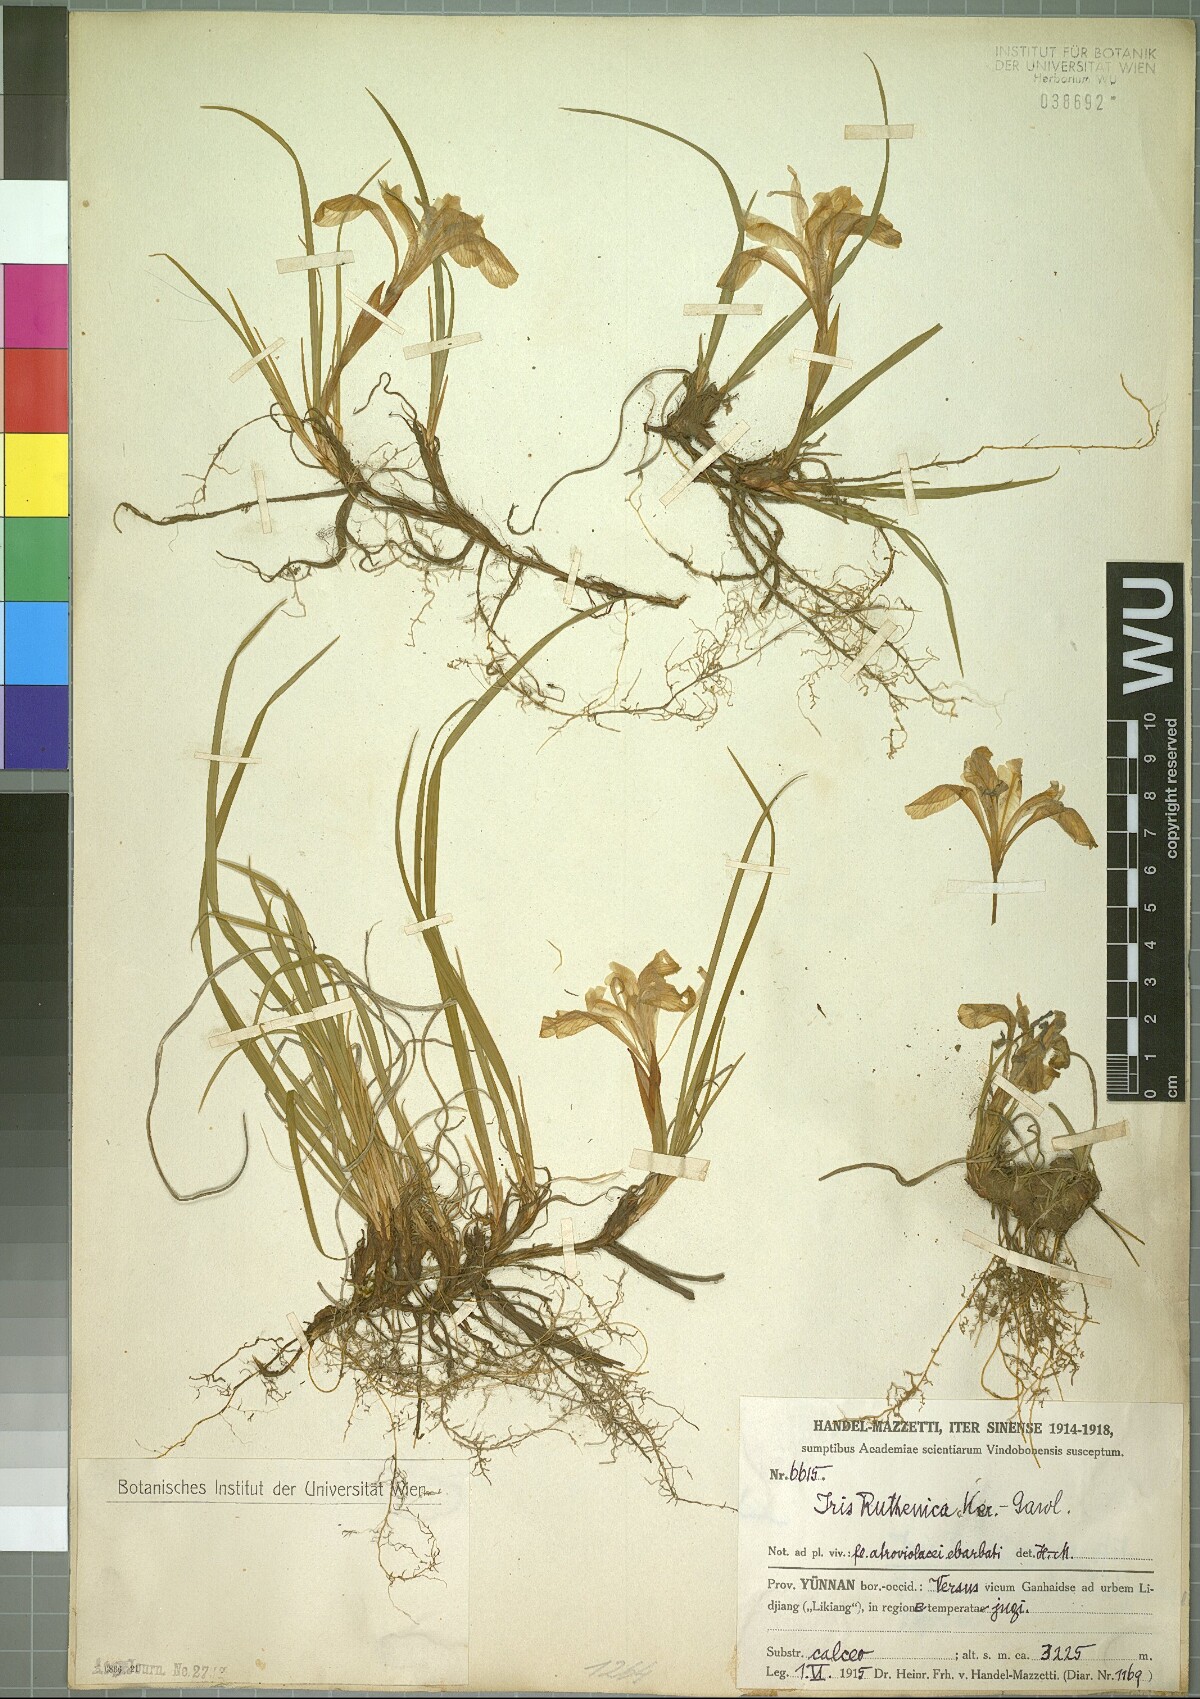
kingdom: Plantae
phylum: Tracheophyta
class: Liliopsida
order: Asparagales
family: Iridaceae
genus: Iris
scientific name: Iris ruthenica
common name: Purple-bract iris
